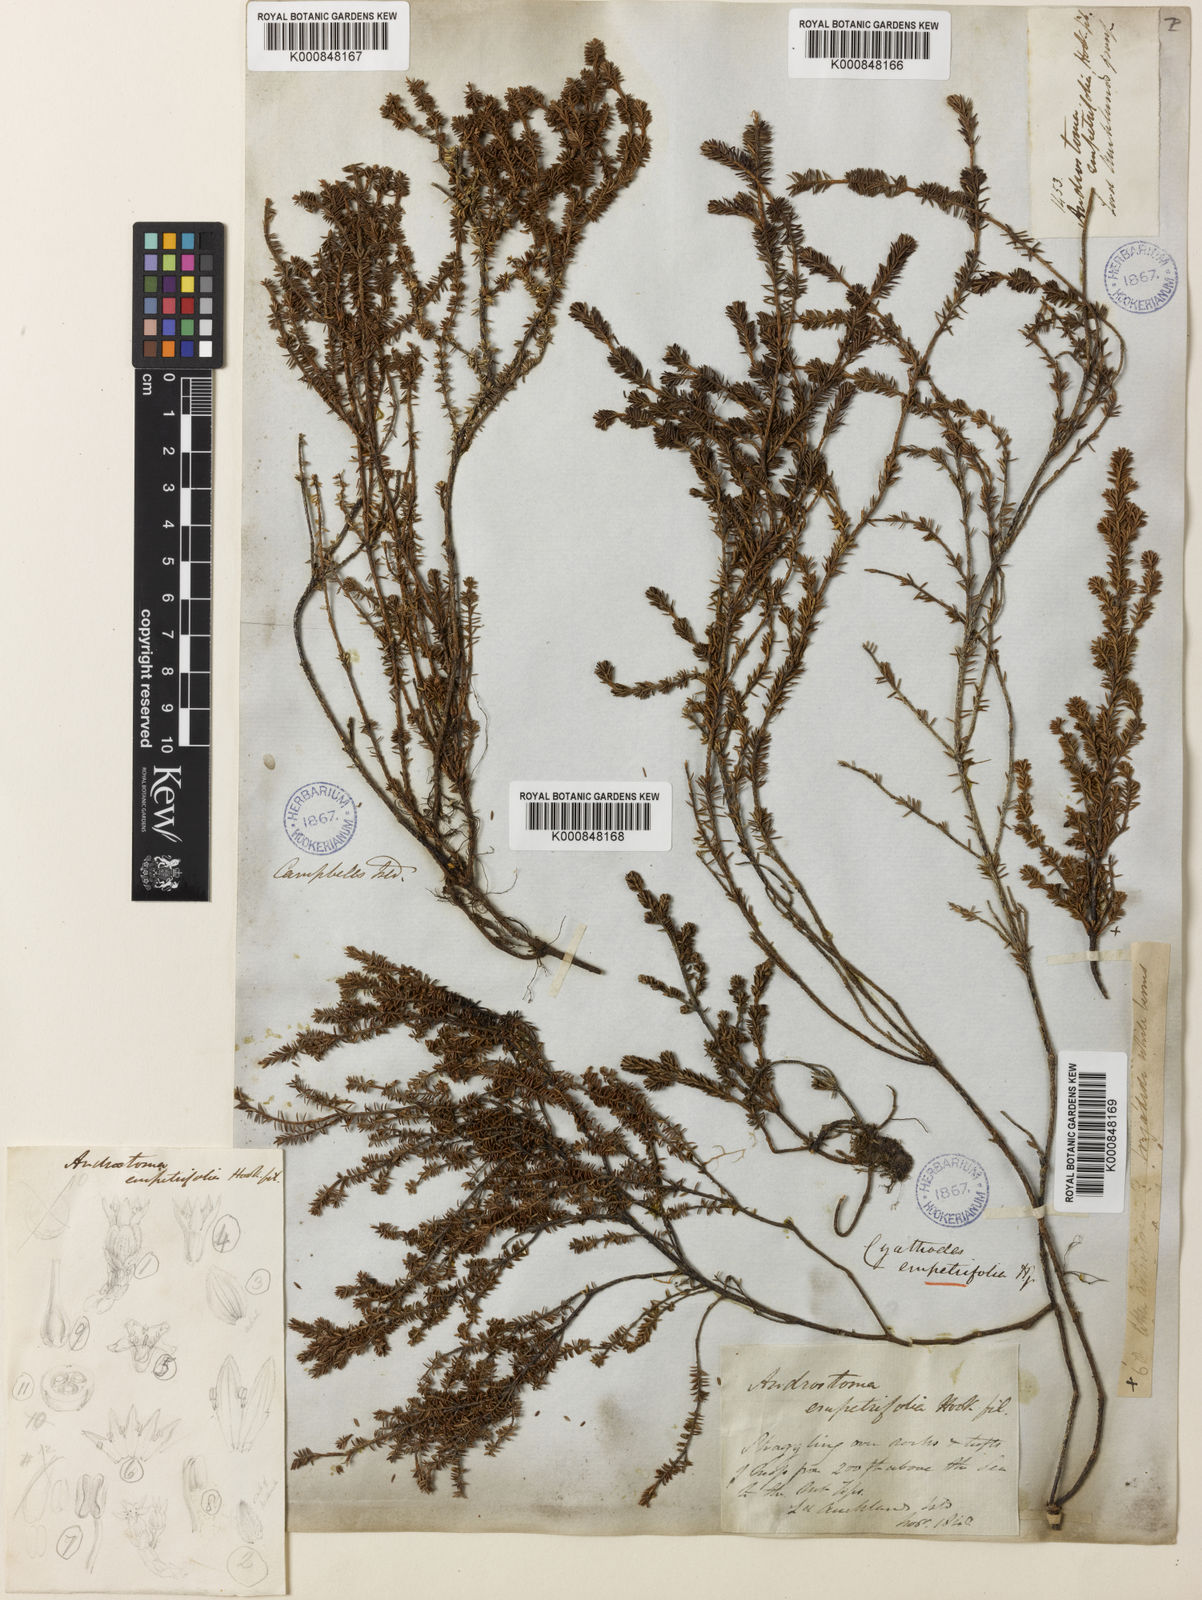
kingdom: Plantae
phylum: Tracheophyta
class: Magnoliopsida
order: Ericales
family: Ericaceae
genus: Androstoma
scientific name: Androstoma empetrifolia
